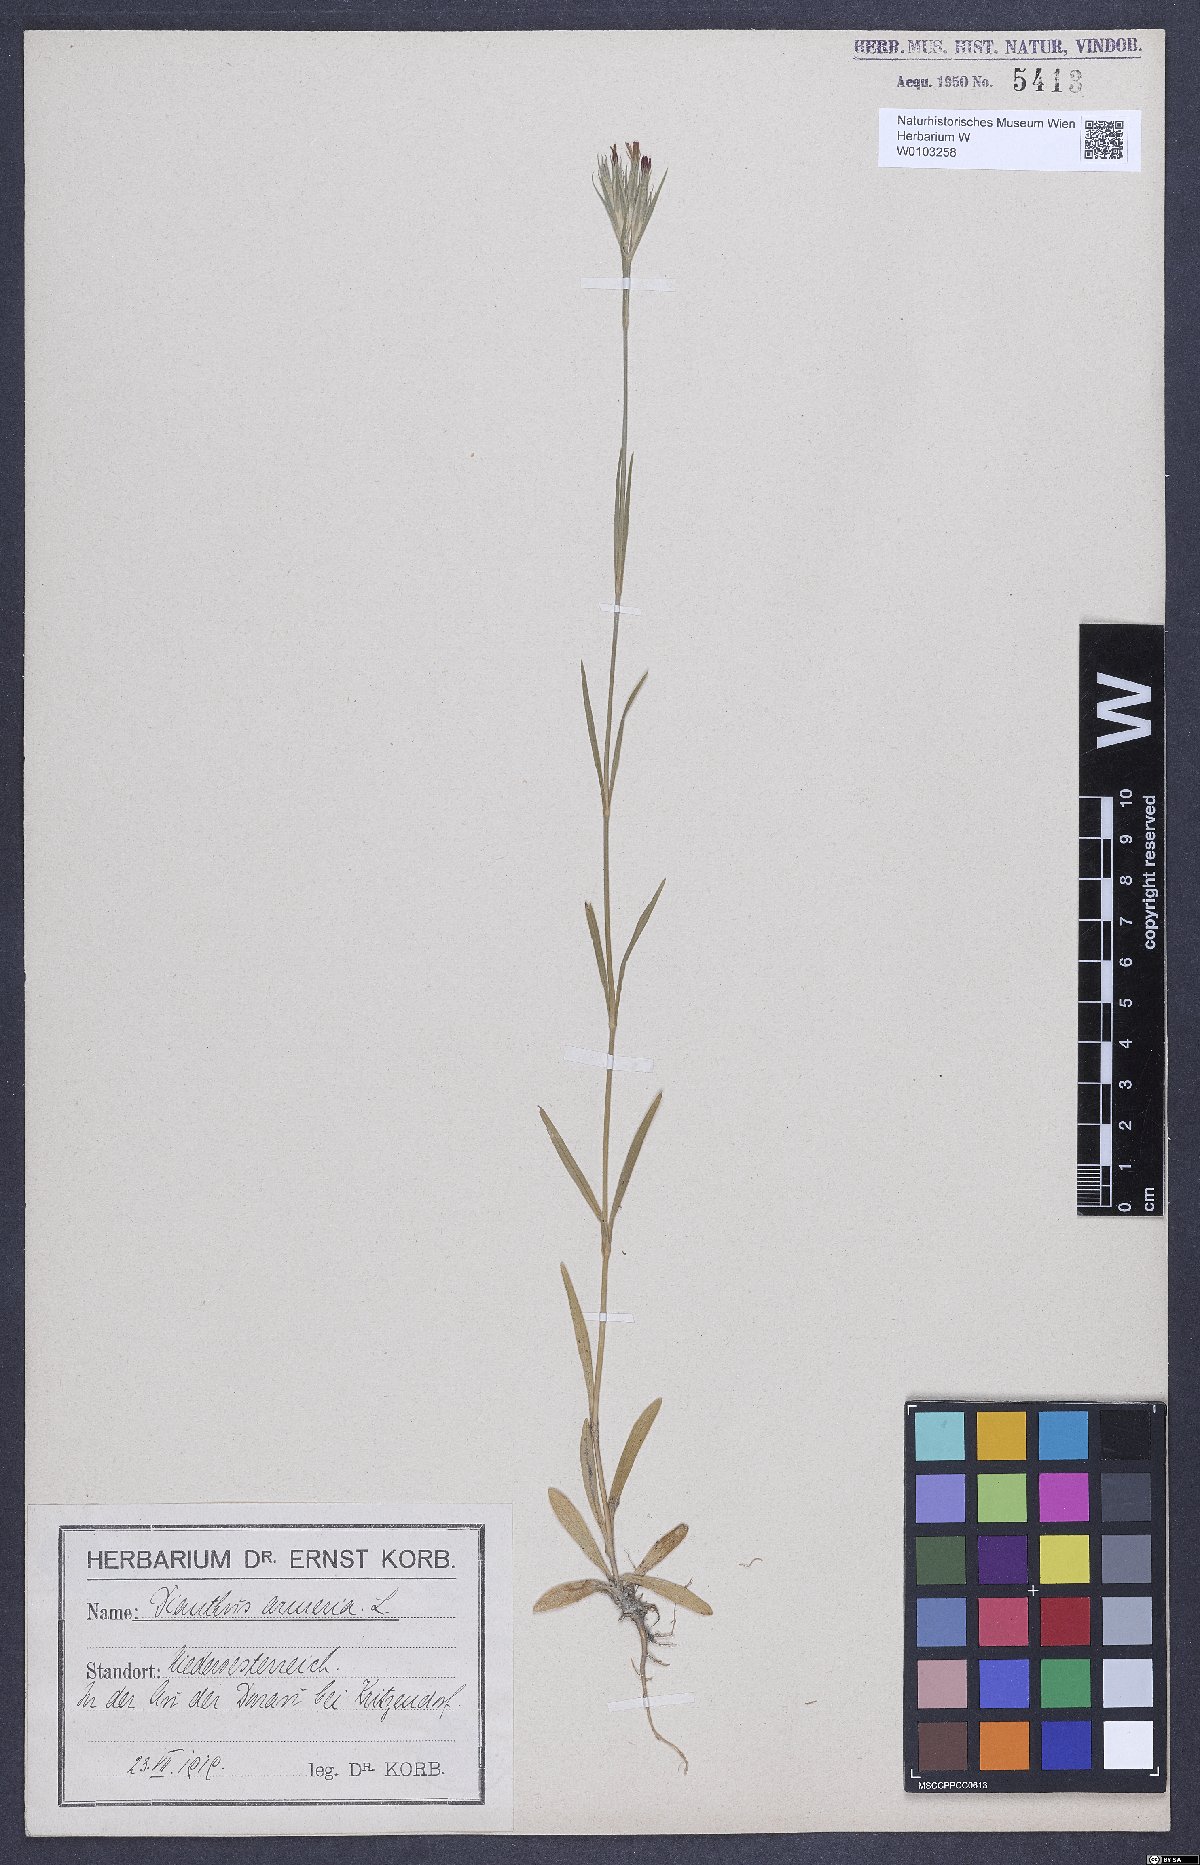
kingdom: Plantae
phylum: Tracheophyta
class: Magnoliopsida
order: Caryophyllales
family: Caryophyllaceae
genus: Dianthus
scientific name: Dianthus armeria
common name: Deptford pink
